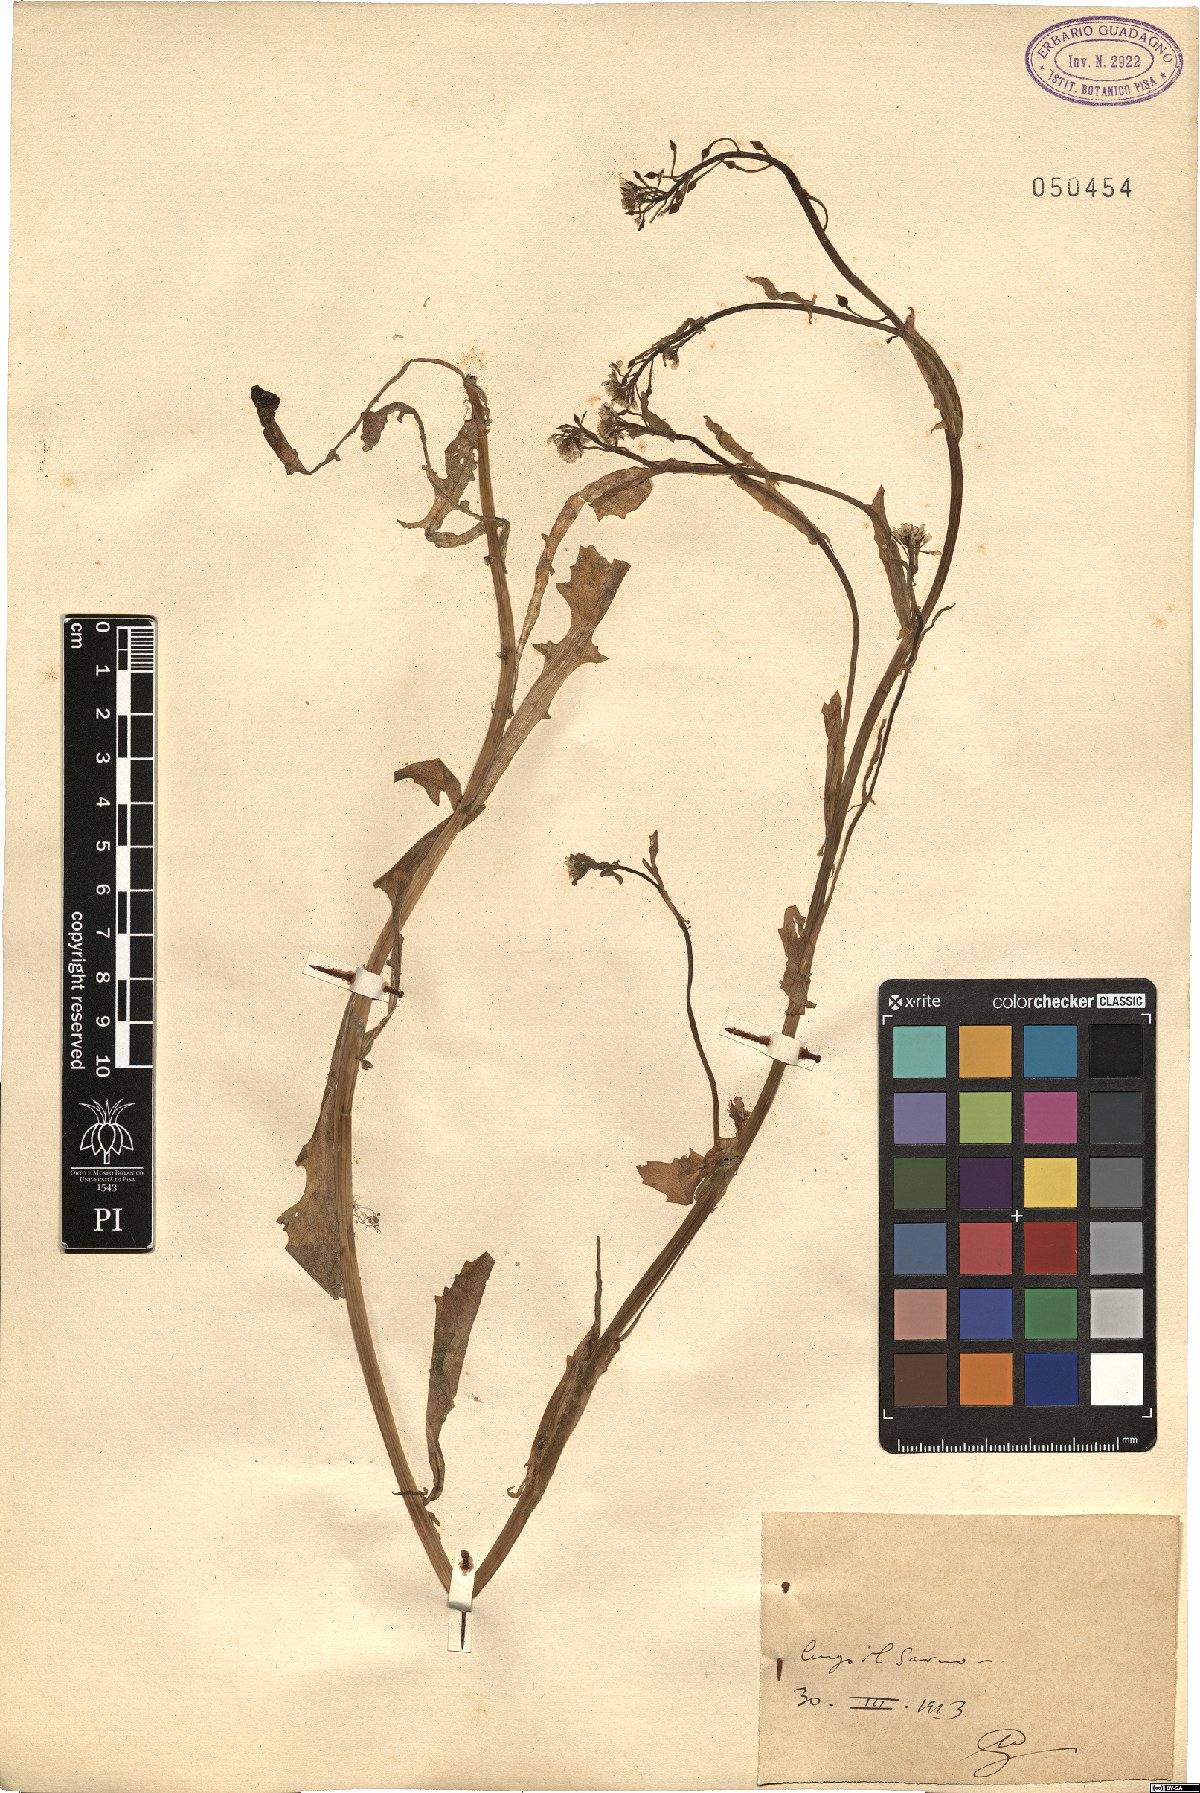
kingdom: Plantae
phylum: Tracheophyta
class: Magnoliopsida
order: Brassicales
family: Brassicaceae
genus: Calepina
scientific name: Calepina
